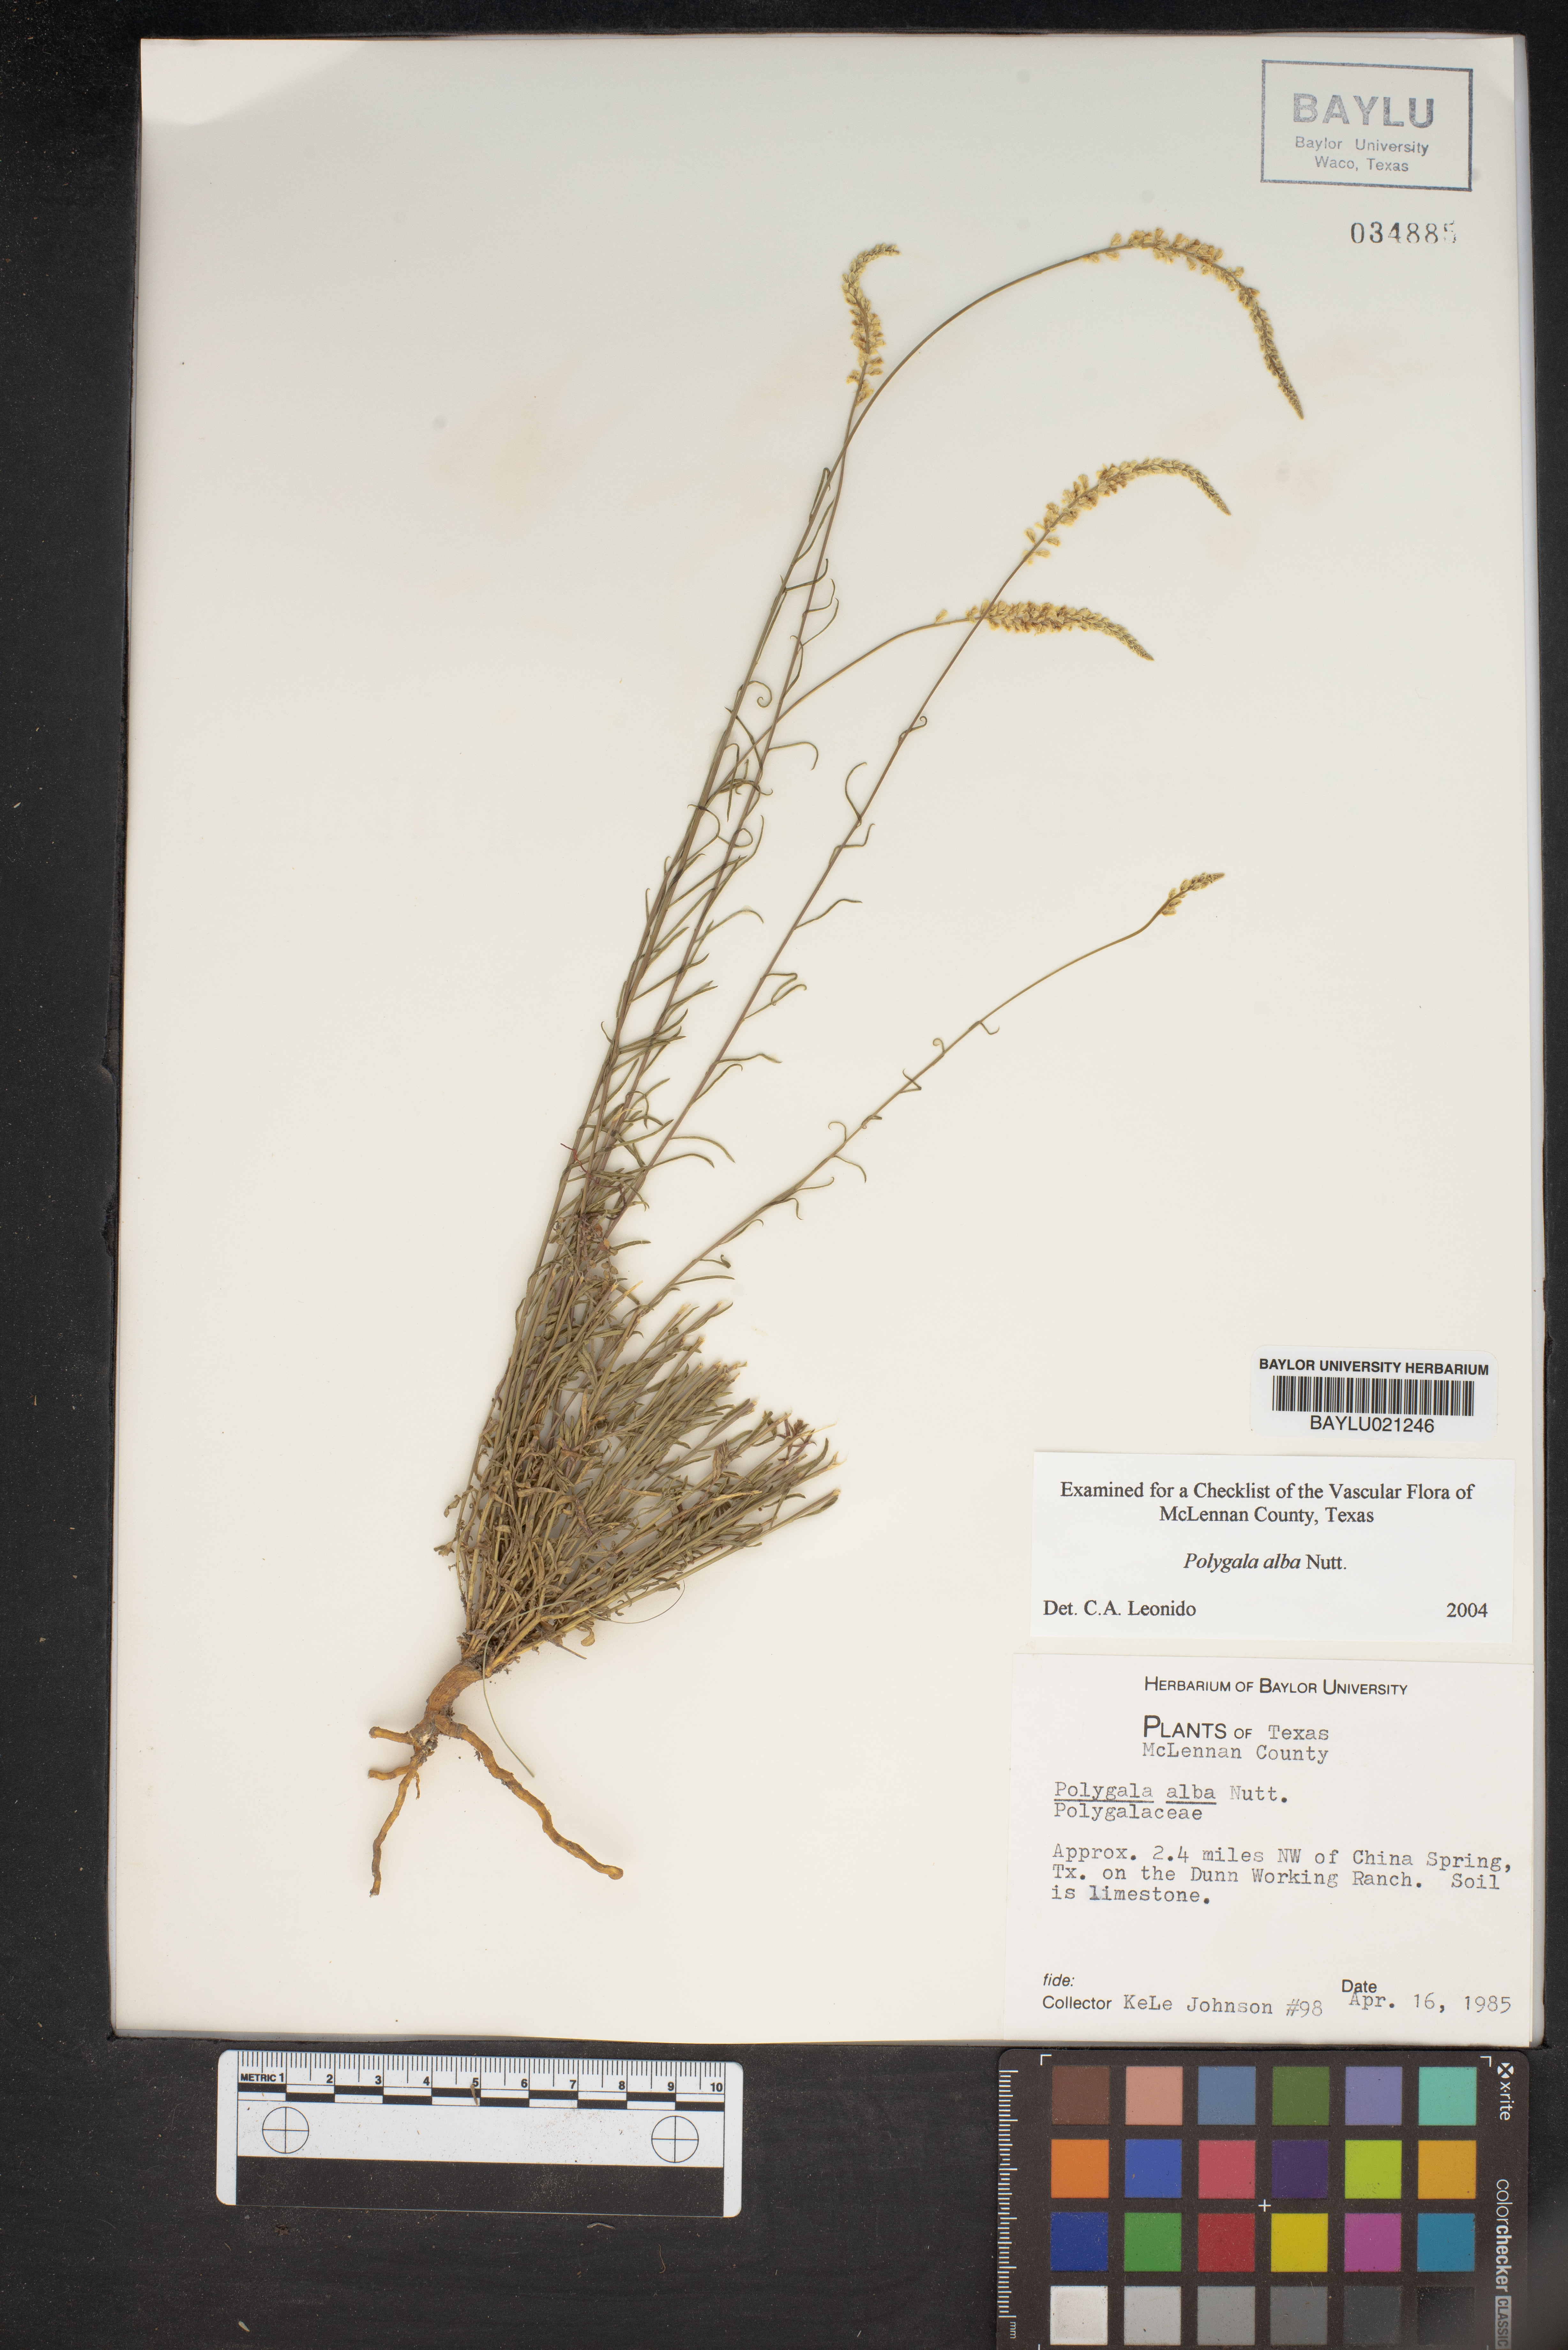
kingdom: Plantae
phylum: Tracheophyta
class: Magnoliopsida
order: Fabales
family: Polygalaceae
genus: Polygala
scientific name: Polygala alba
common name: White milkwort
